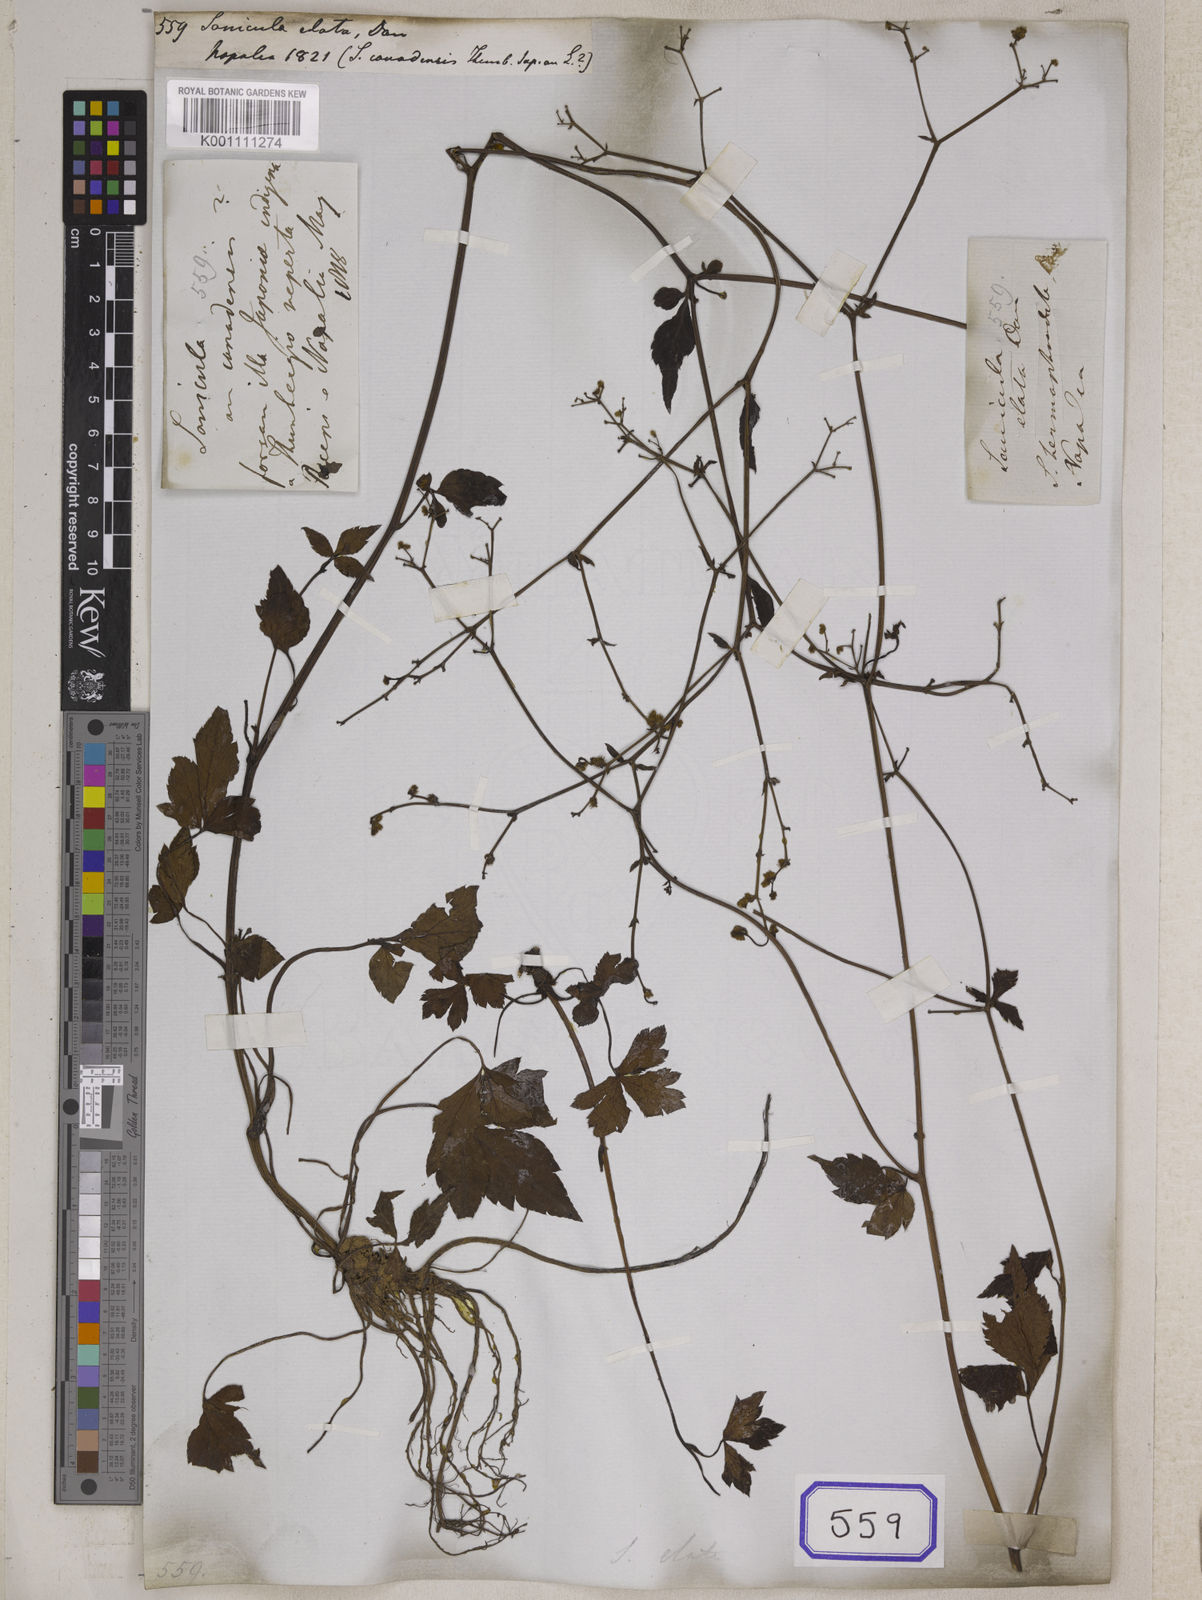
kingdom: Plantae
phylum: Tracheophyta
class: Magnoliopsida
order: Apiales
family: Apiaceae
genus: Sanicula
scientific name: Sanicula elata
